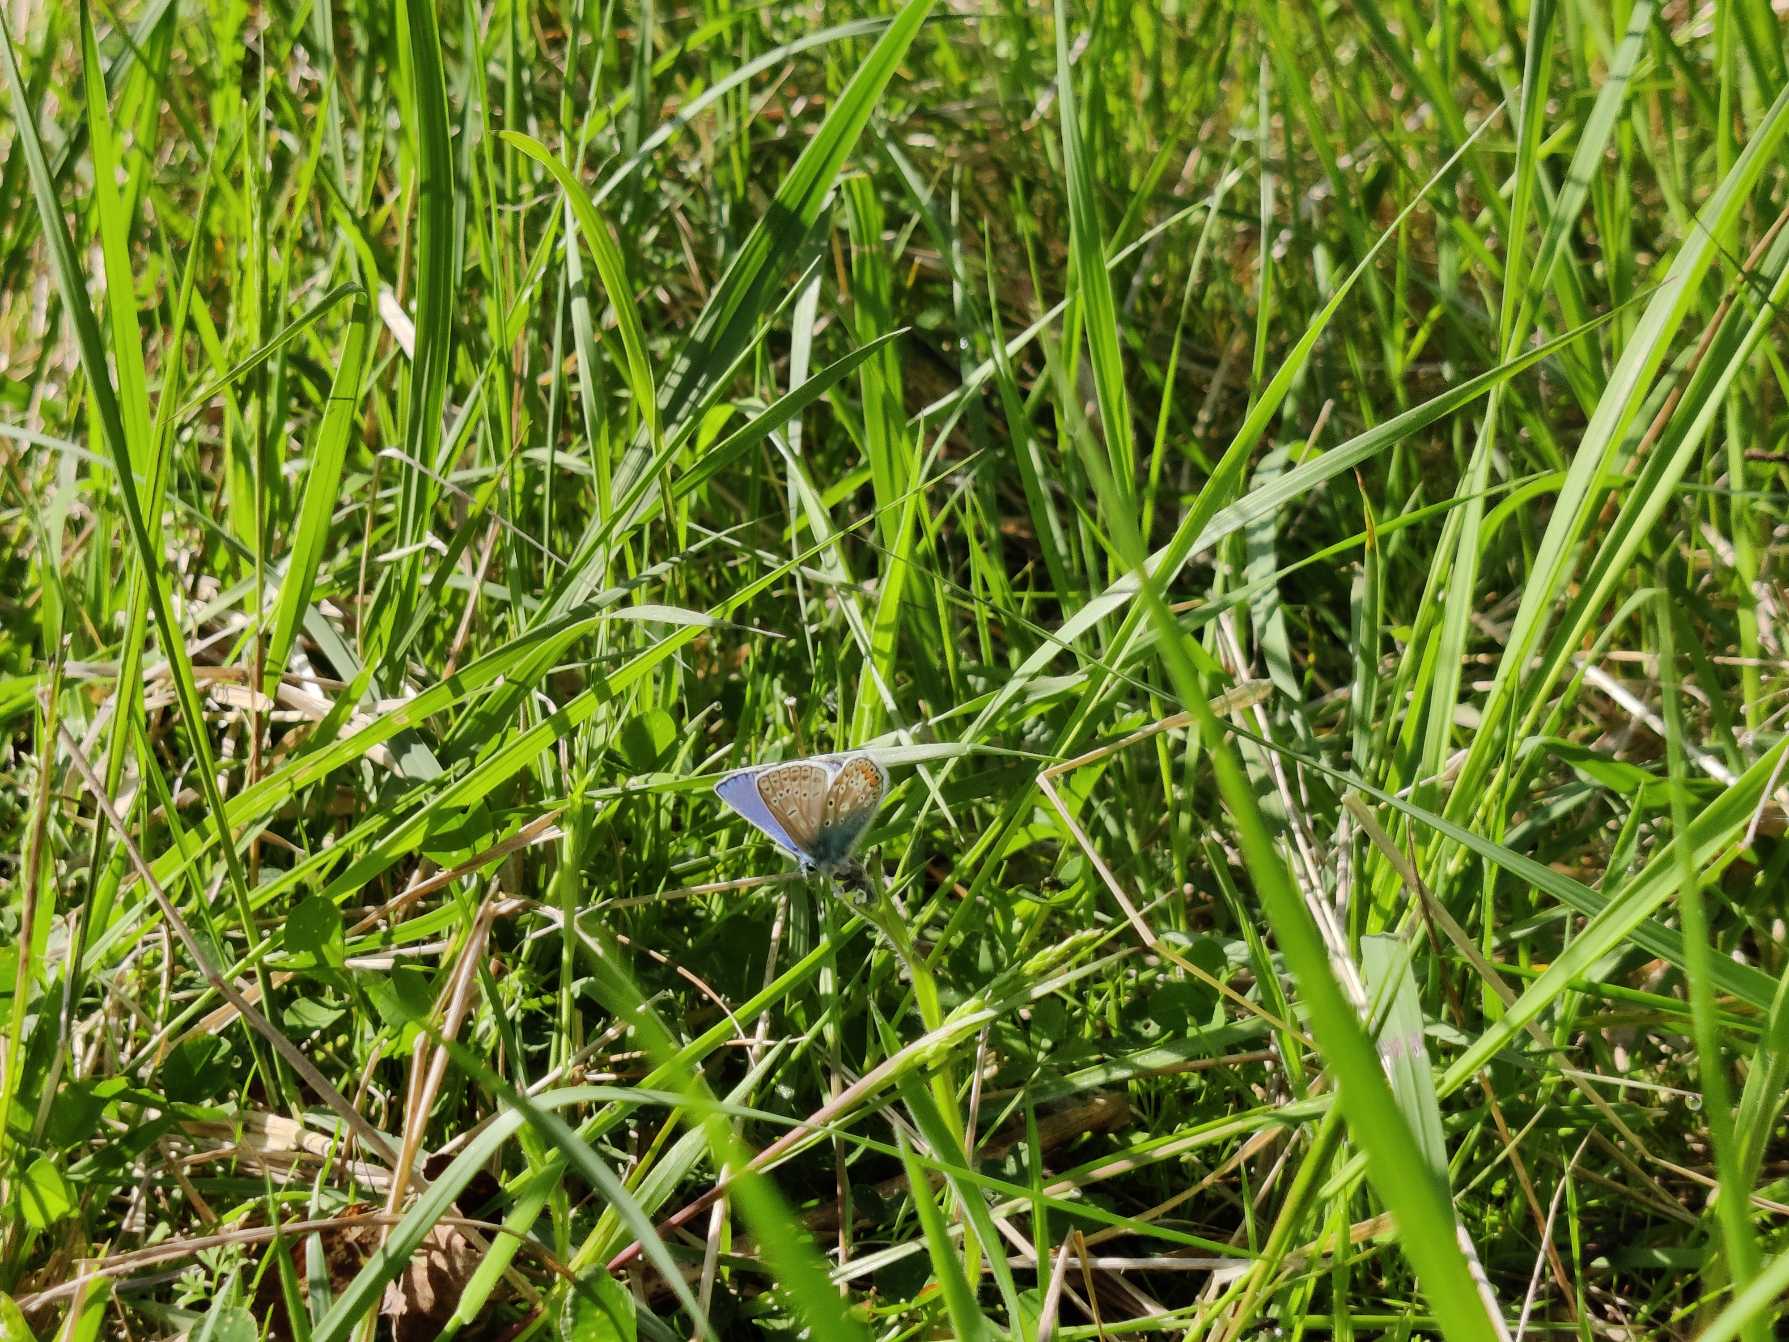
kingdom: Animalia
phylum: Arthropoda
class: Insecta
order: Lepidoptera
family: Lycaenidae
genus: Polyommatus
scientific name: Polyommatus icarus
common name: Almindelig blåfugl
